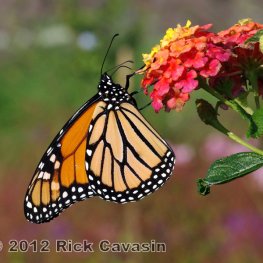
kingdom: Animalia
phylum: Arthropoda
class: Insecta
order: Lepidoptera
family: Nymphalidae
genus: Danaus
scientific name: Danaus plexippus
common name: Monarch
